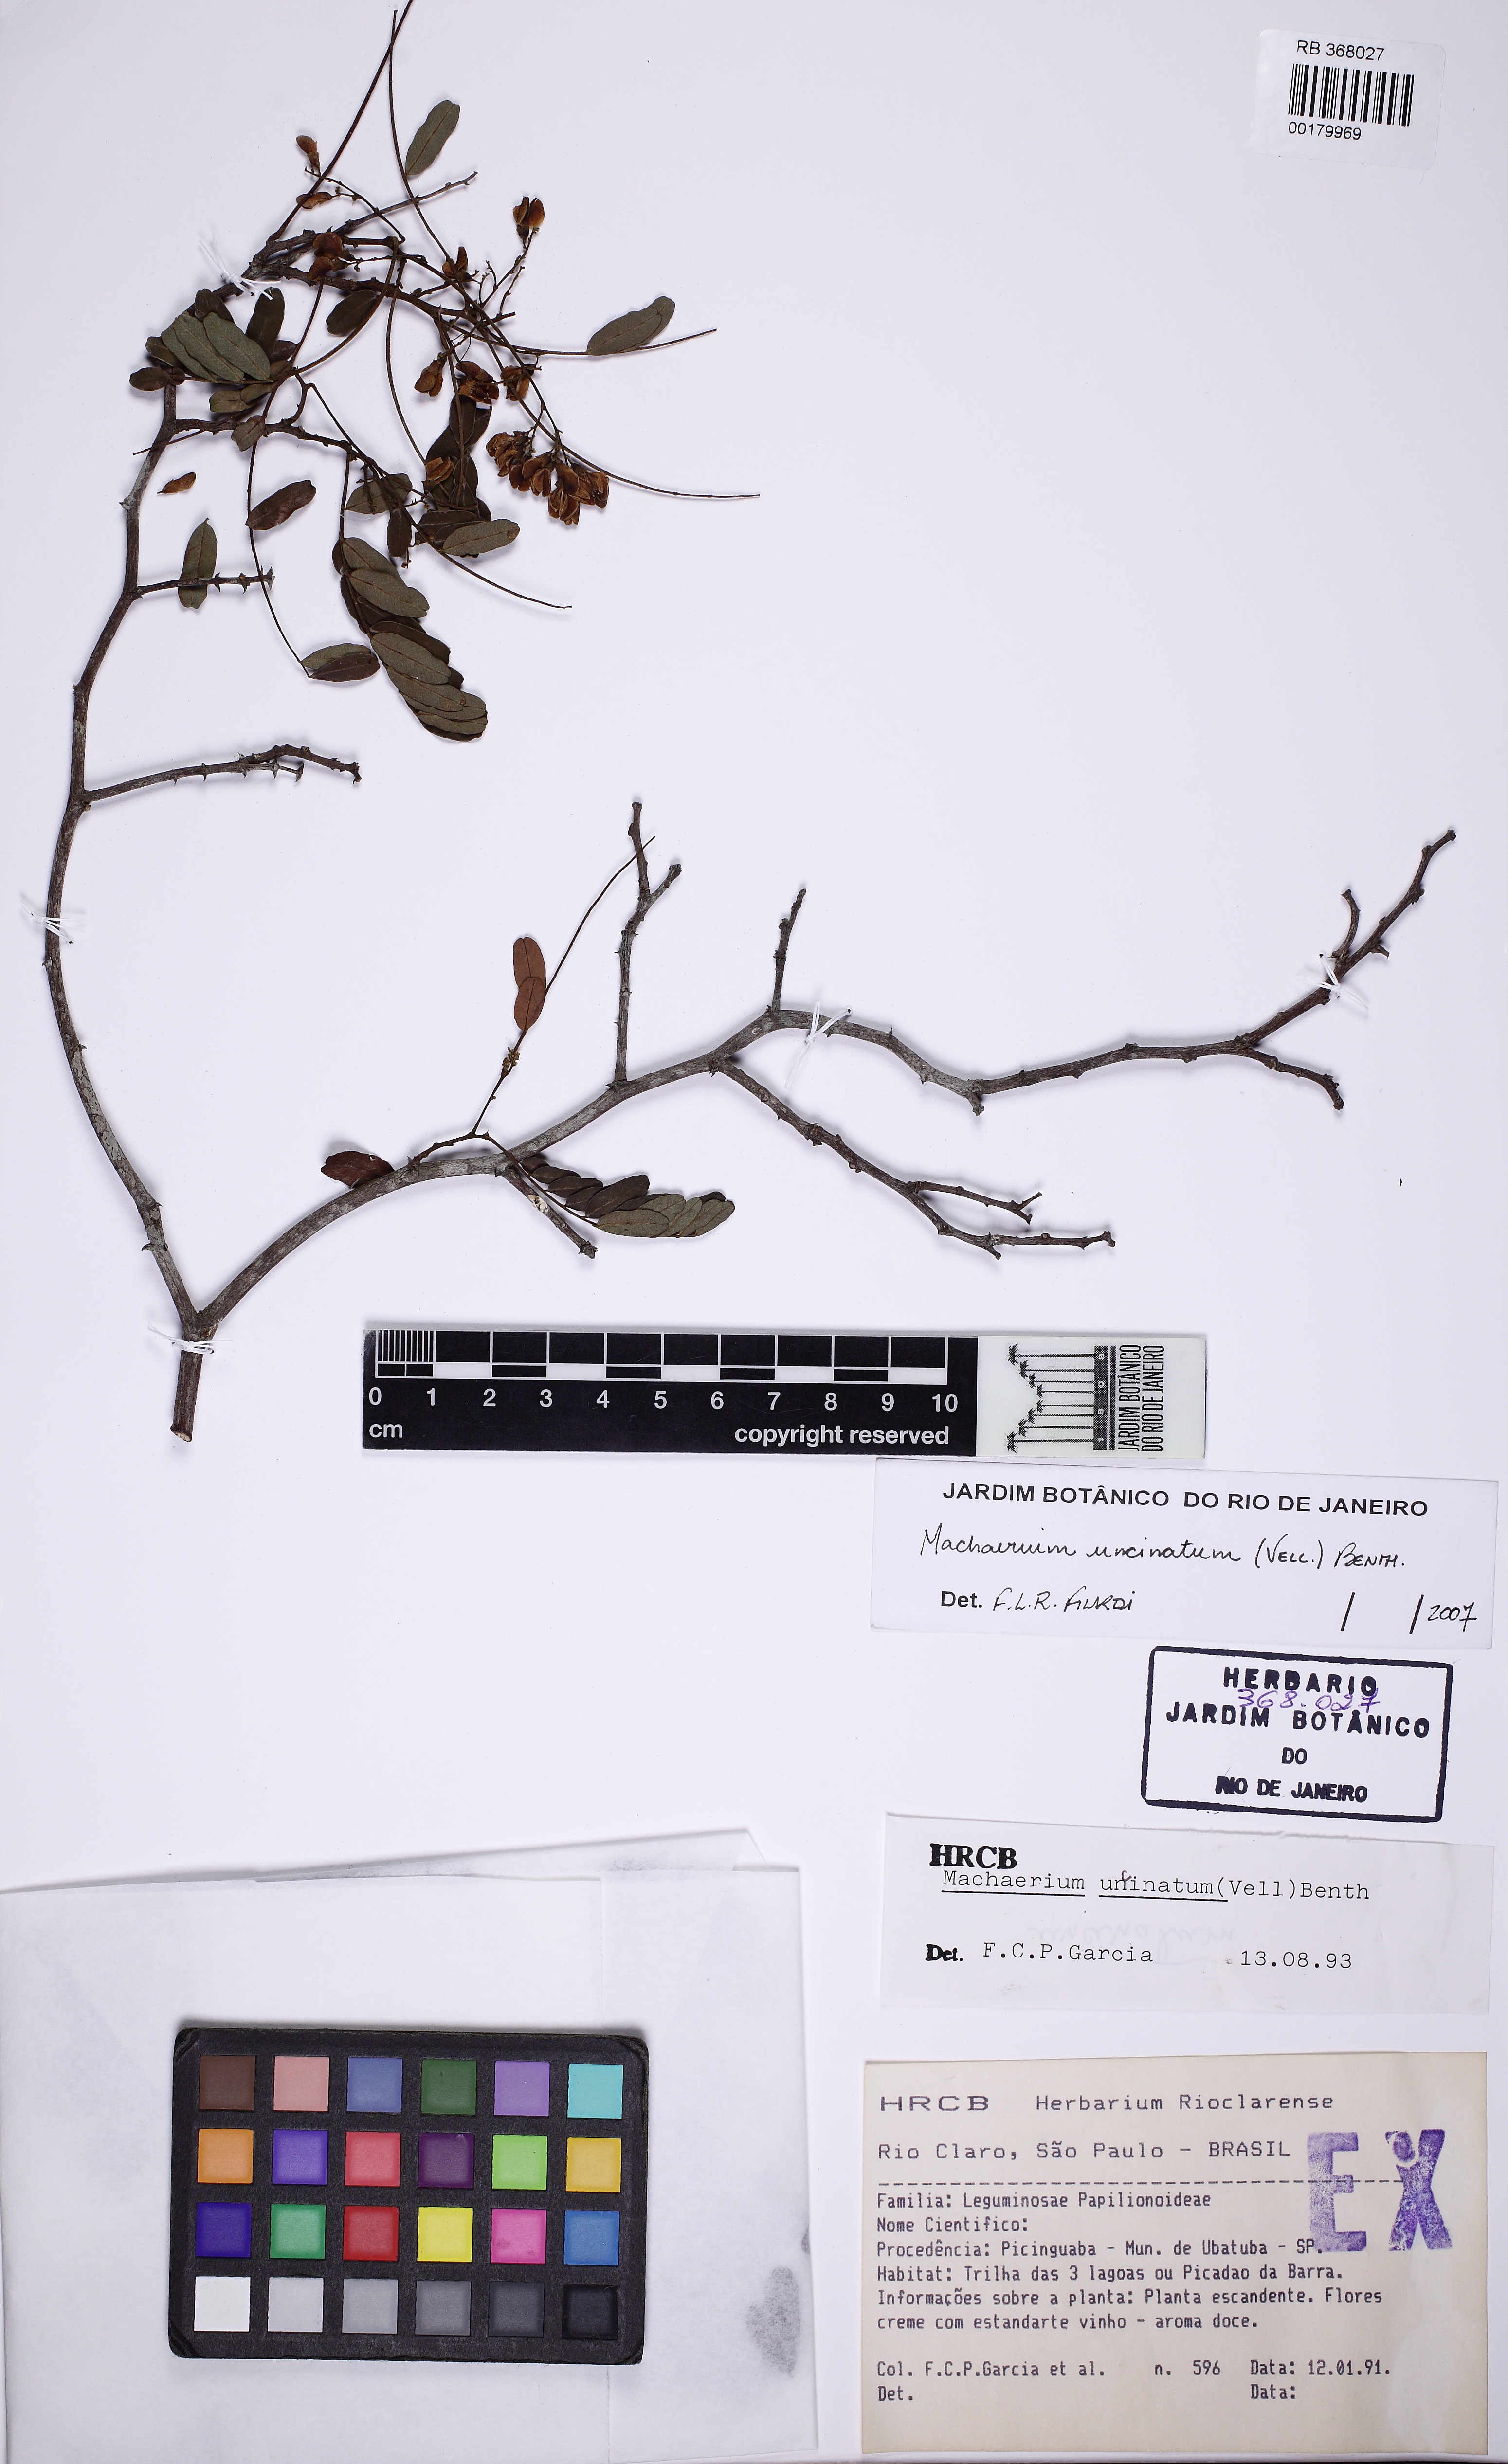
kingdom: Plantae
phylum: Tracheophyta
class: Magnoliopsida
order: Fabales
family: Fabaceae
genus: Machaerium
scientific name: Machaerium uncinatum
